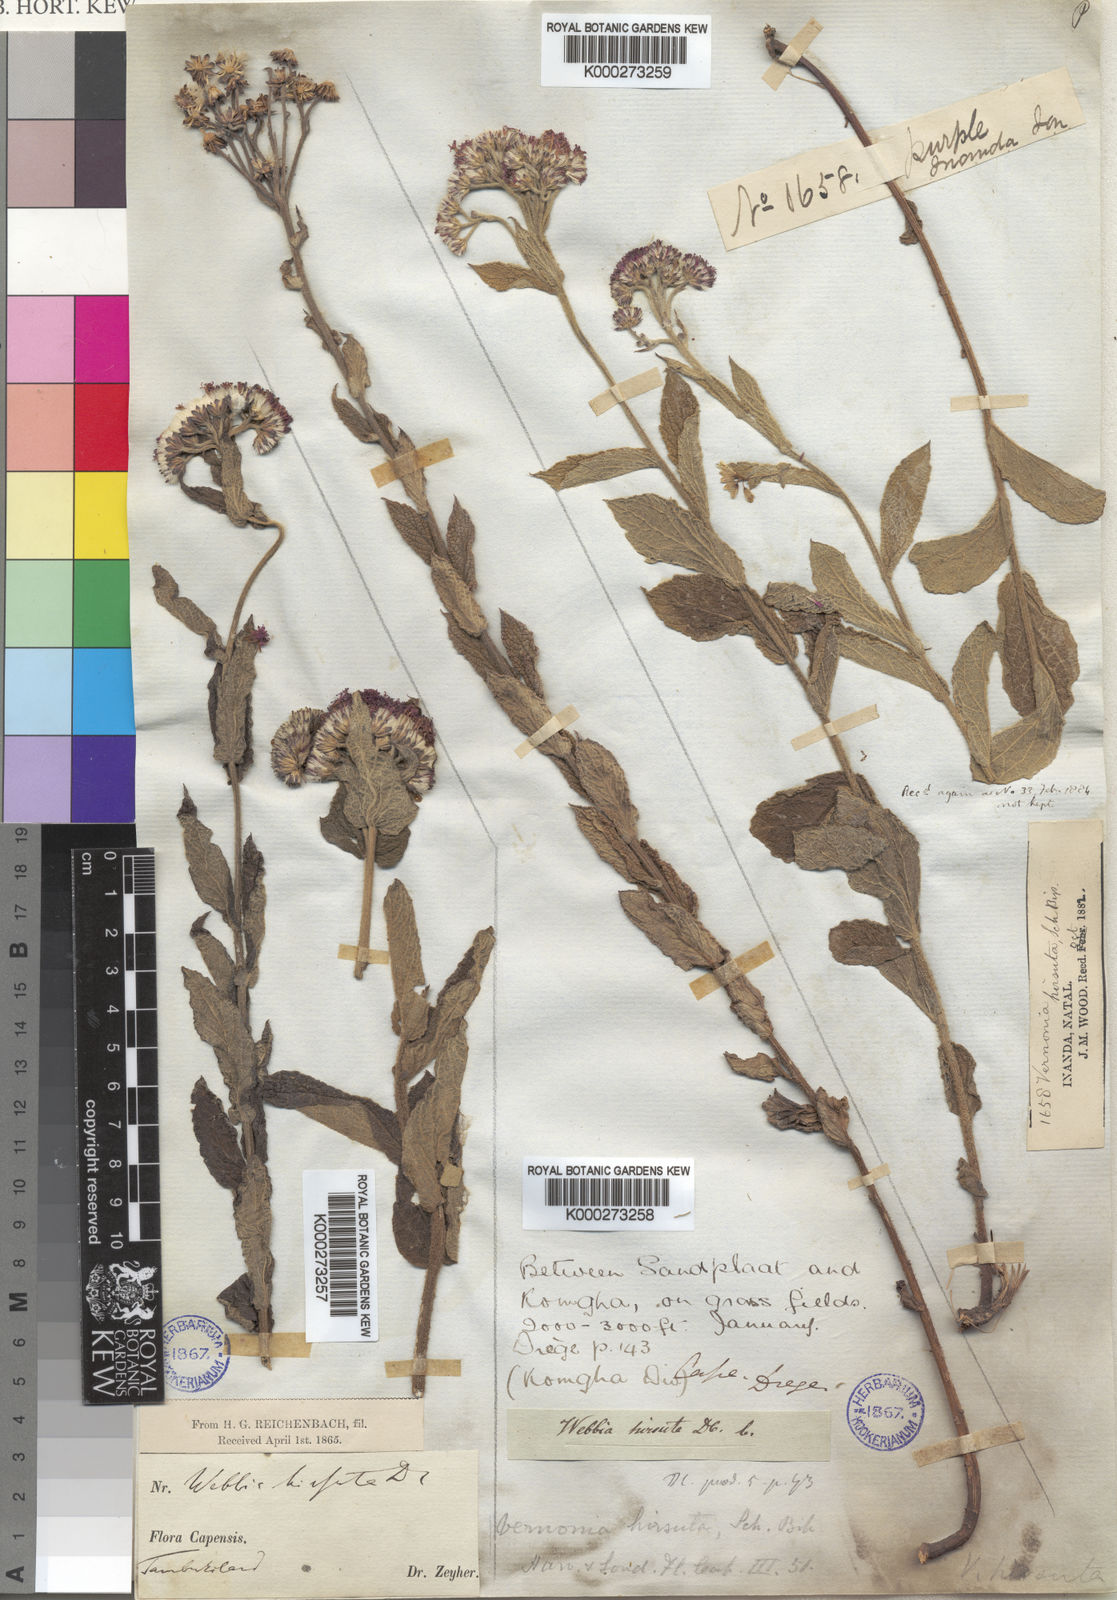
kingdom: Plantae
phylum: Tracheophyta
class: Magnoliopsida
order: Asterales
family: Asteraceae
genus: Vernonia
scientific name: Vernonia
